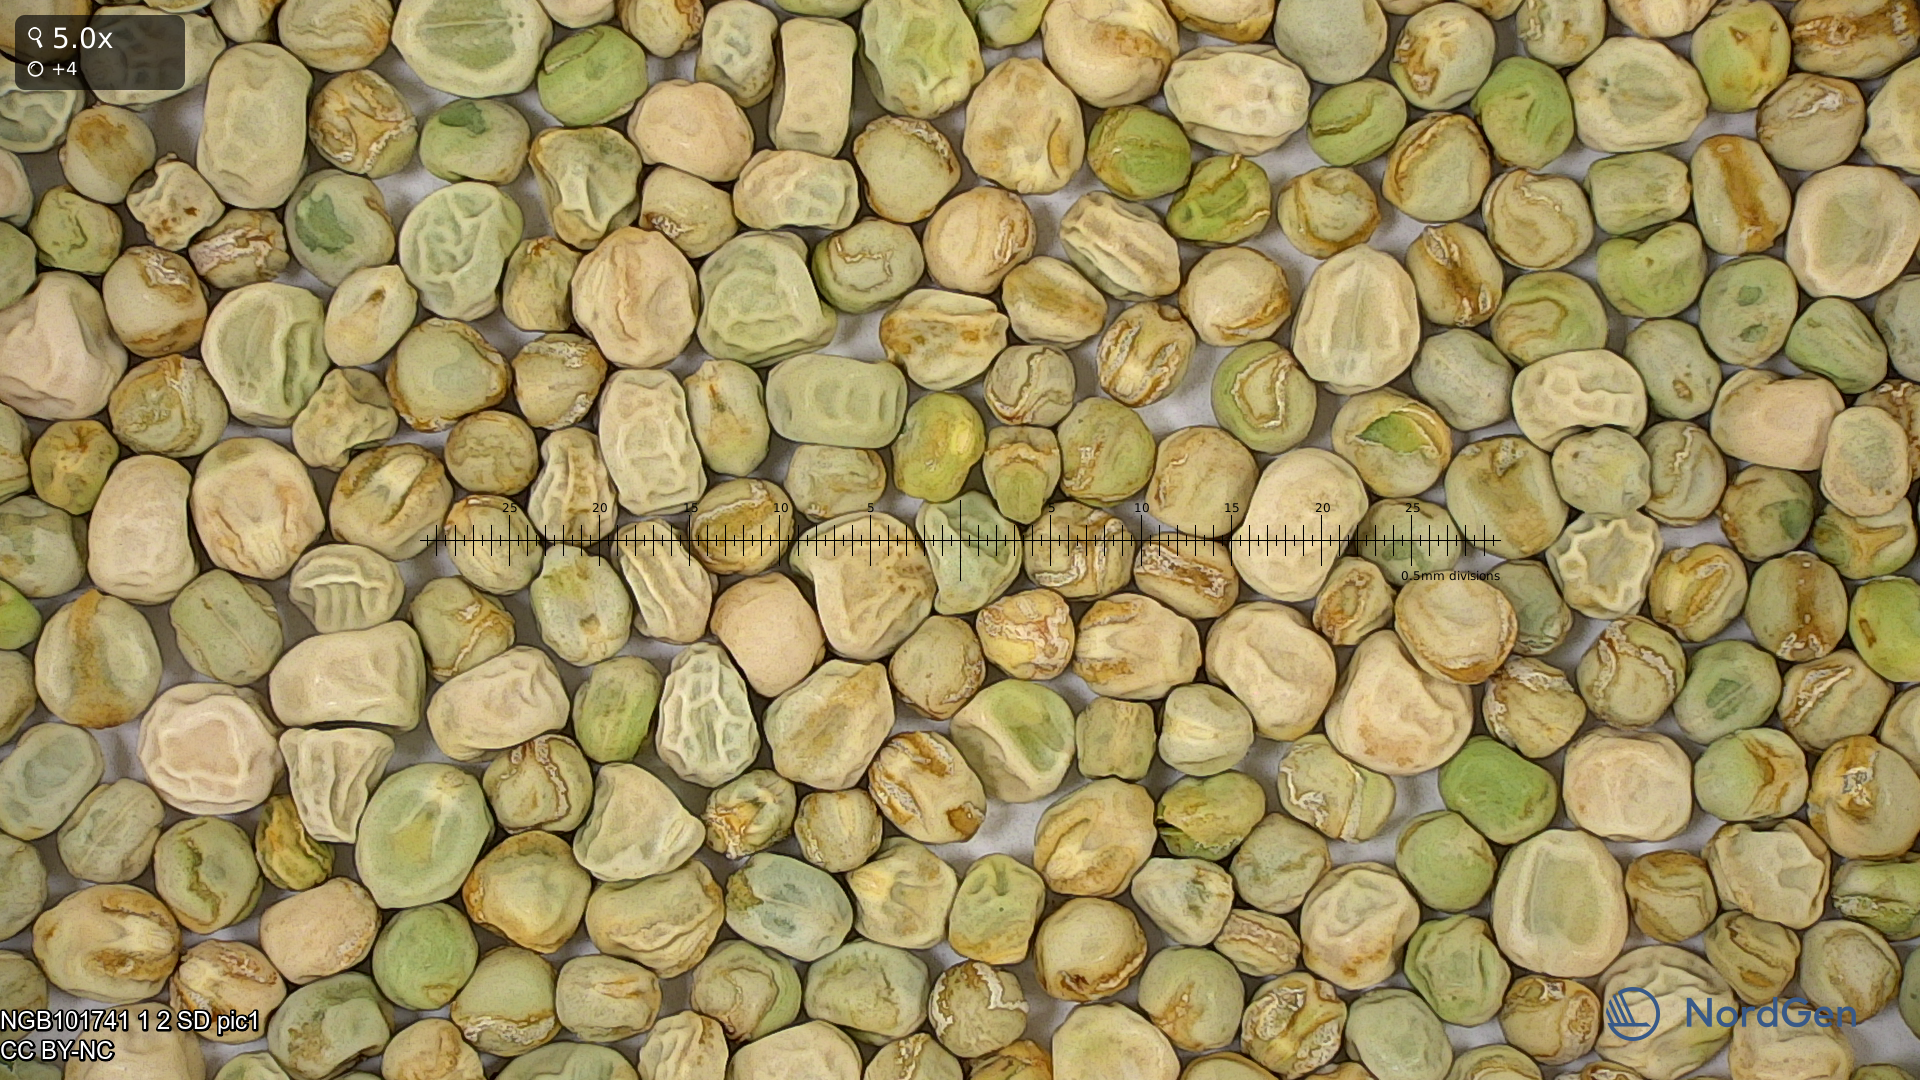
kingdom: Plantae
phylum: Tracheophyta
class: Magnoliopsida
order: Fabales
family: Fabaceae
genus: Lathyrus
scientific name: Lathyrus oleraceus
